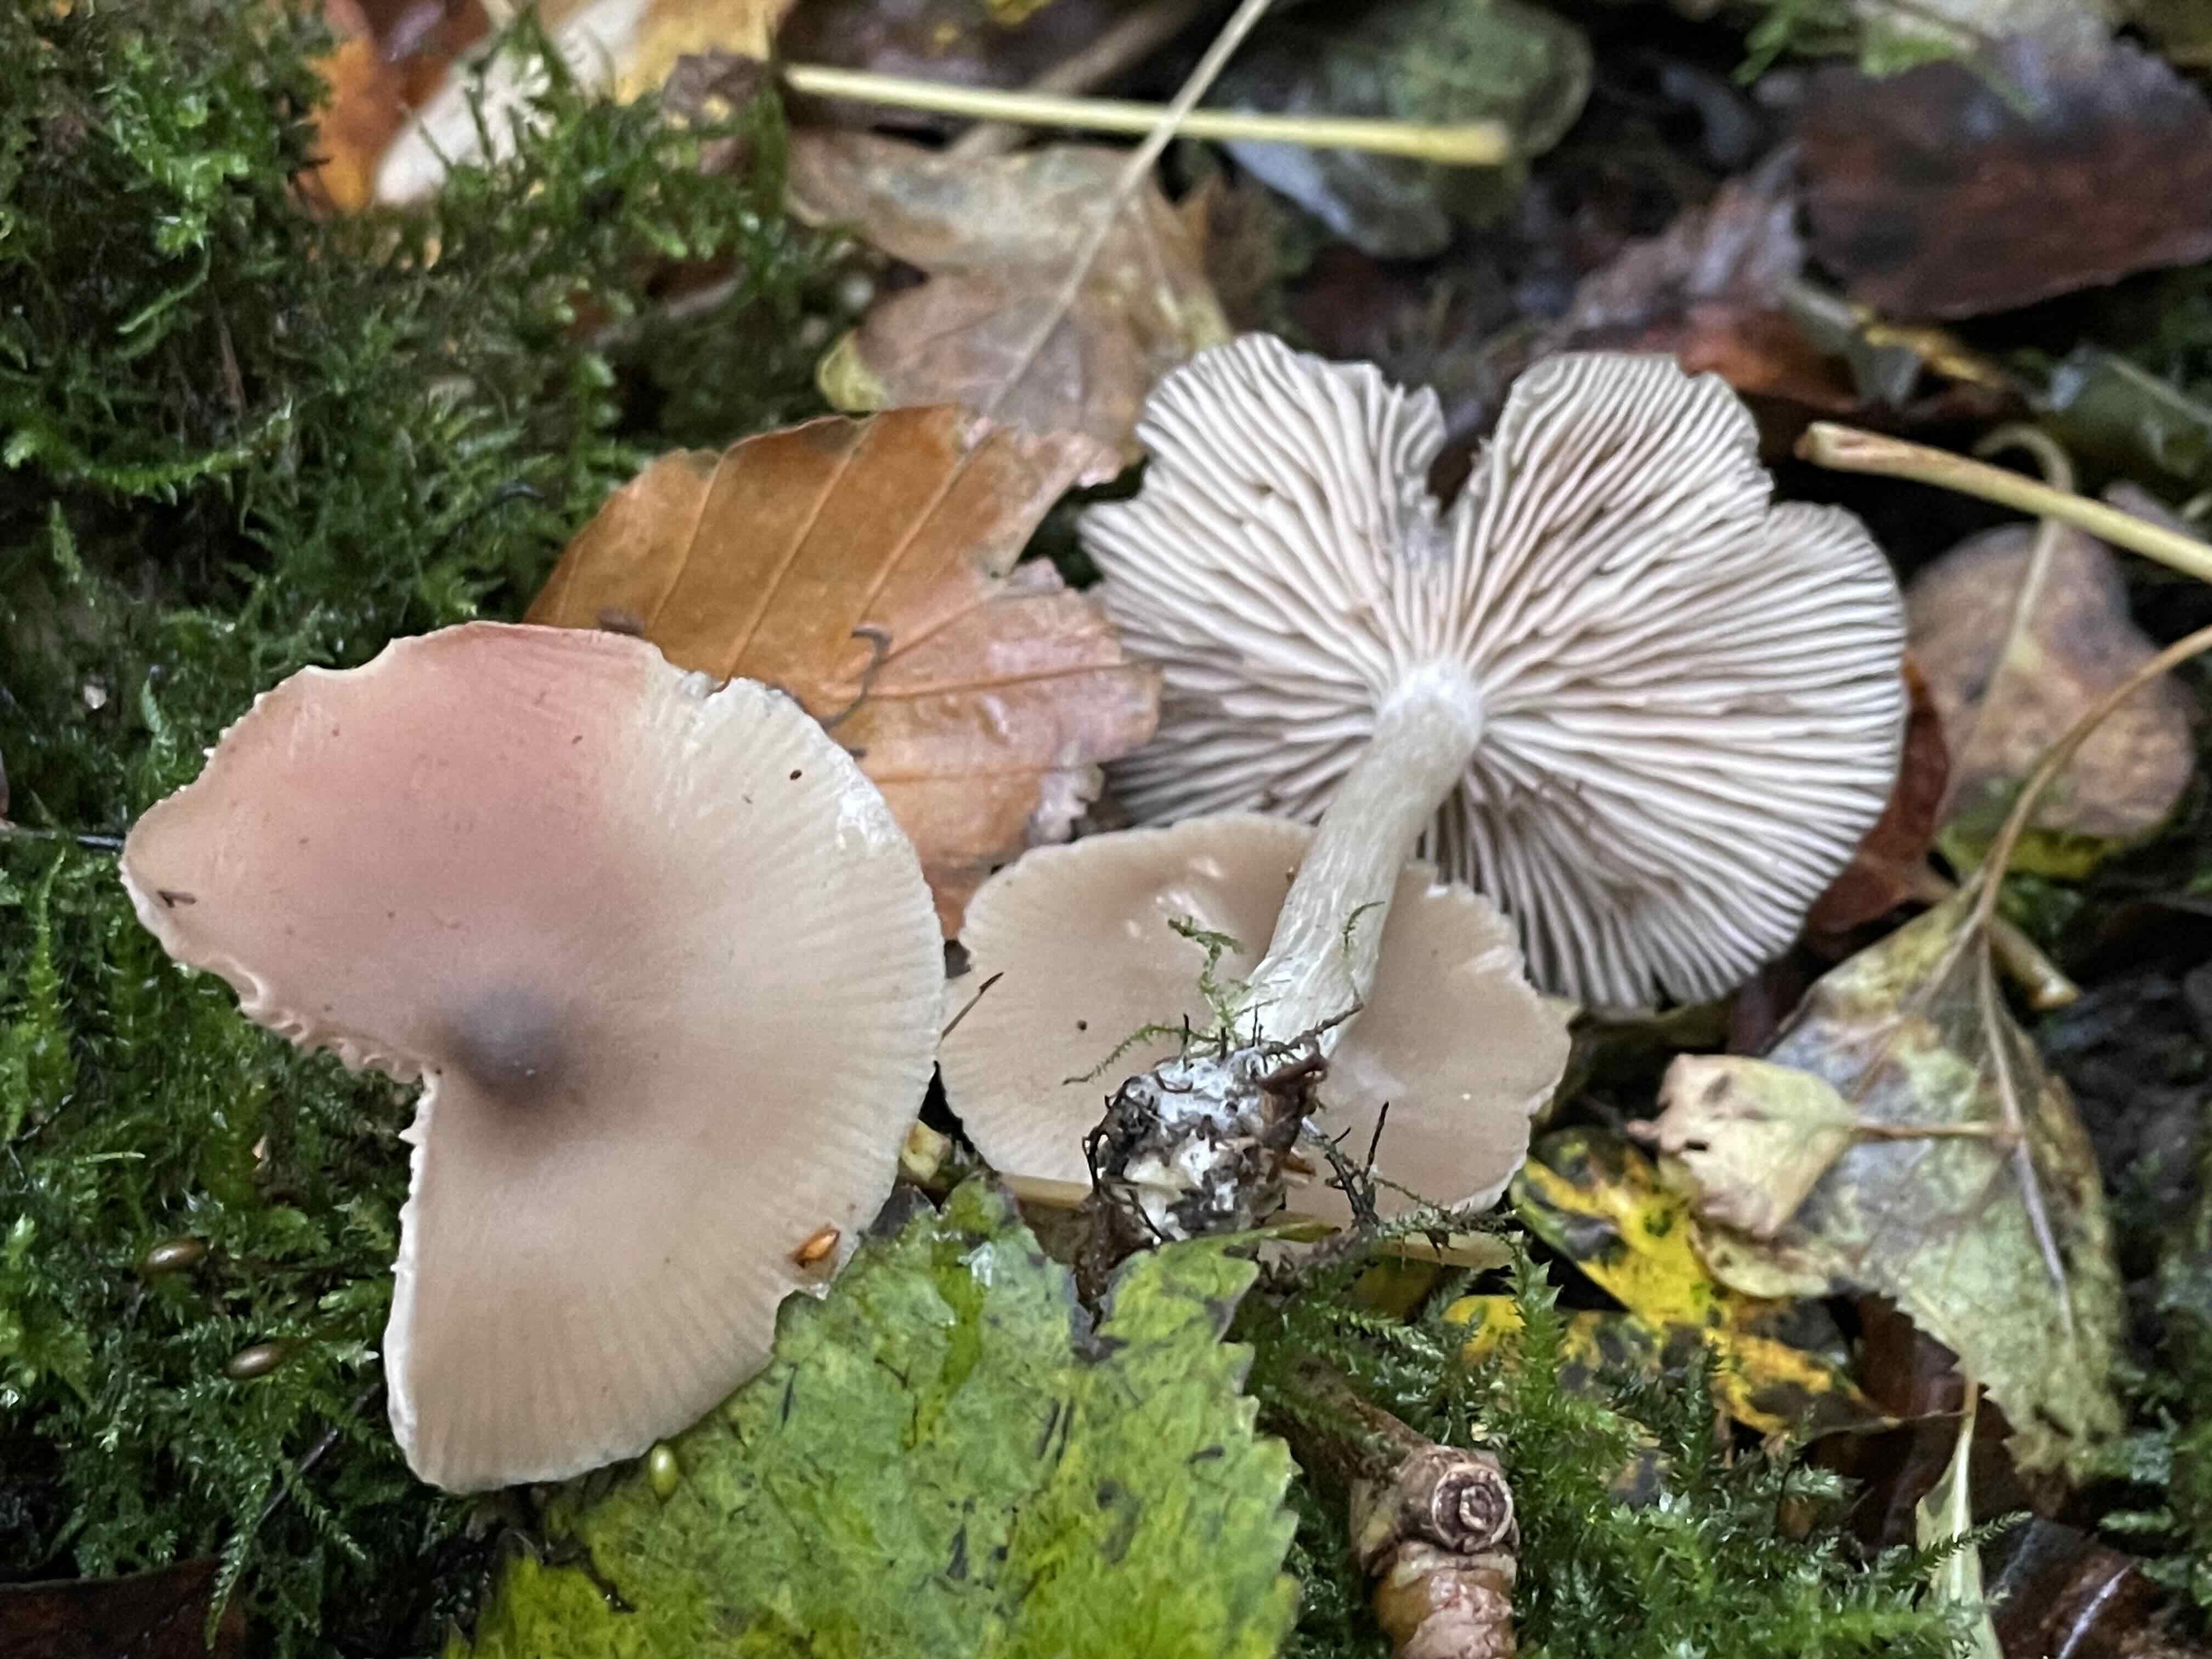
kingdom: Fungi
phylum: Basidiomycota
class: Agaricomycetes
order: Agaricales
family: Entolomataceae
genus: Entoloma
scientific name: Entoloma
